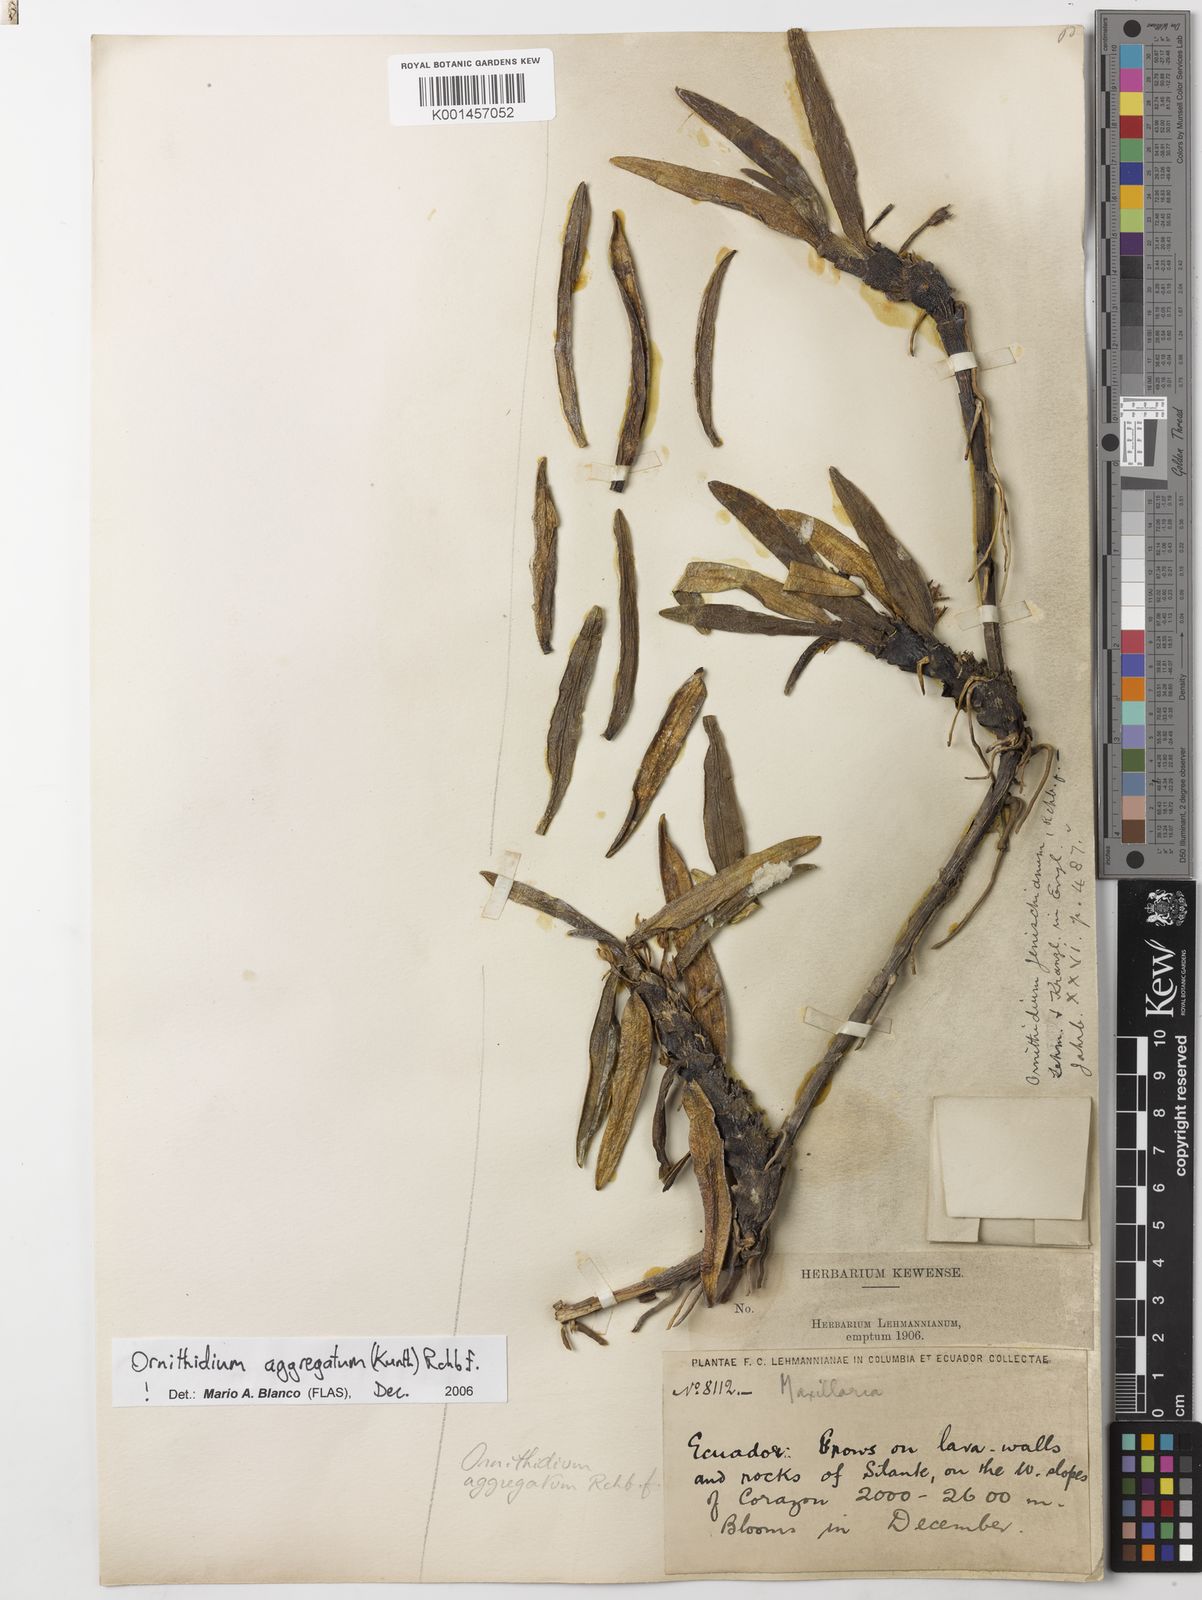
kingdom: Plantae
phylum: Tracheophyta
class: Liliopsida
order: Asparagales
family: Orchidaceae
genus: Maxillaria
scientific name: Maxillaria aggregata
